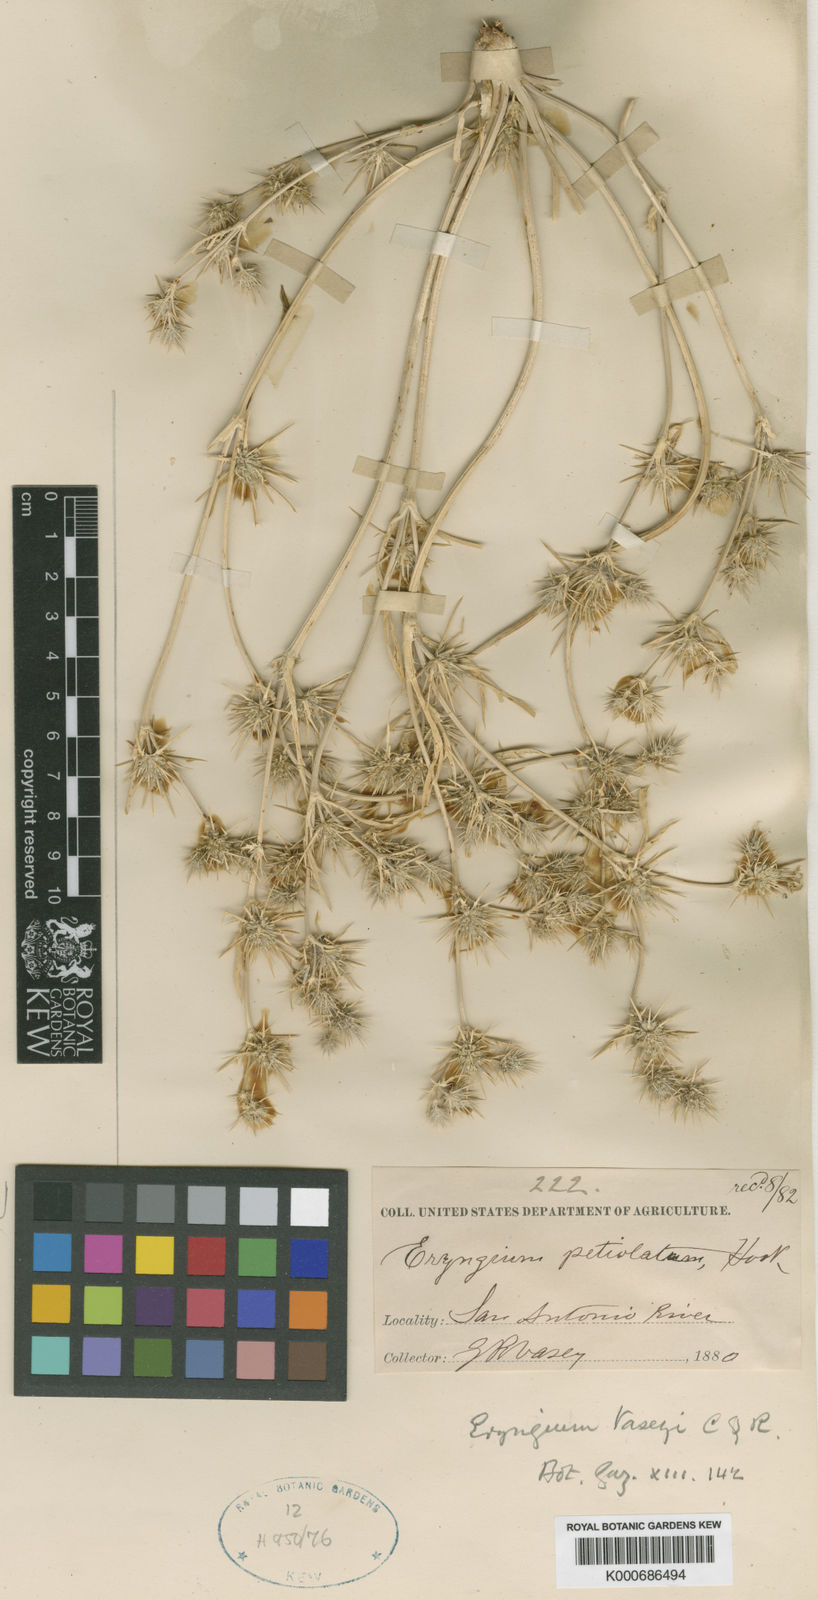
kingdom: Plantae
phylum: Tracheophyta
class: Magnoliopsida
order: Apiales
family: Apiaceae
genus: Eryngium
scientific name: Eryngium vaseyi
